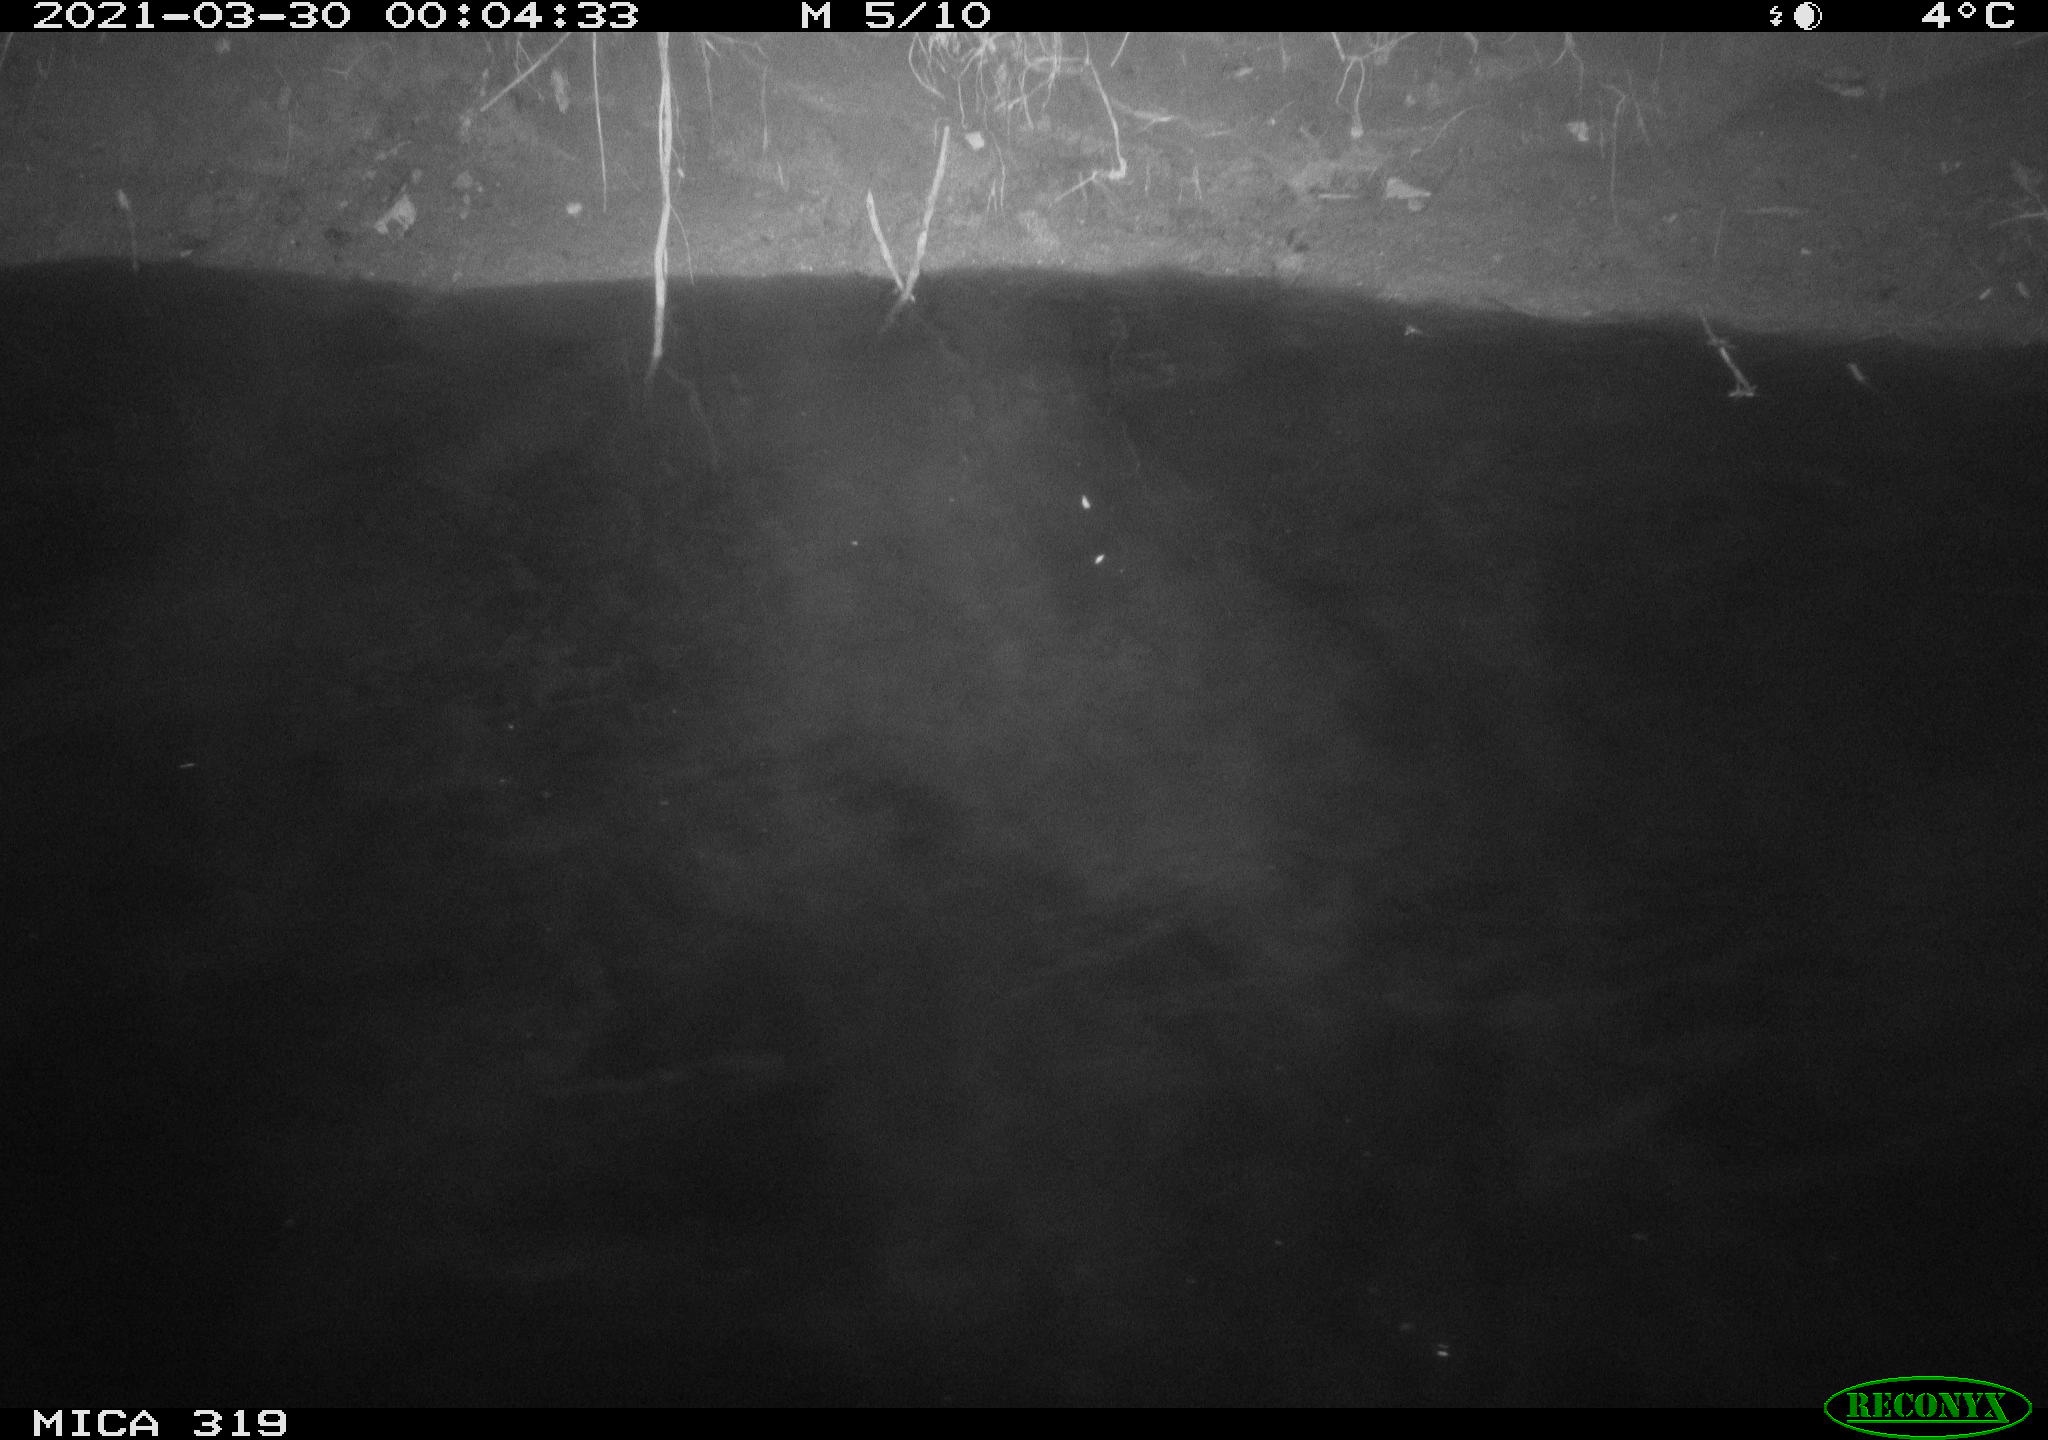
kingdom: Animalia
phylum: Chordata
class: Aves
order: Anseriformes
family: Anatidae
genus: Anas
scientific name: Anas platyrhynchos
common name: Mallard
